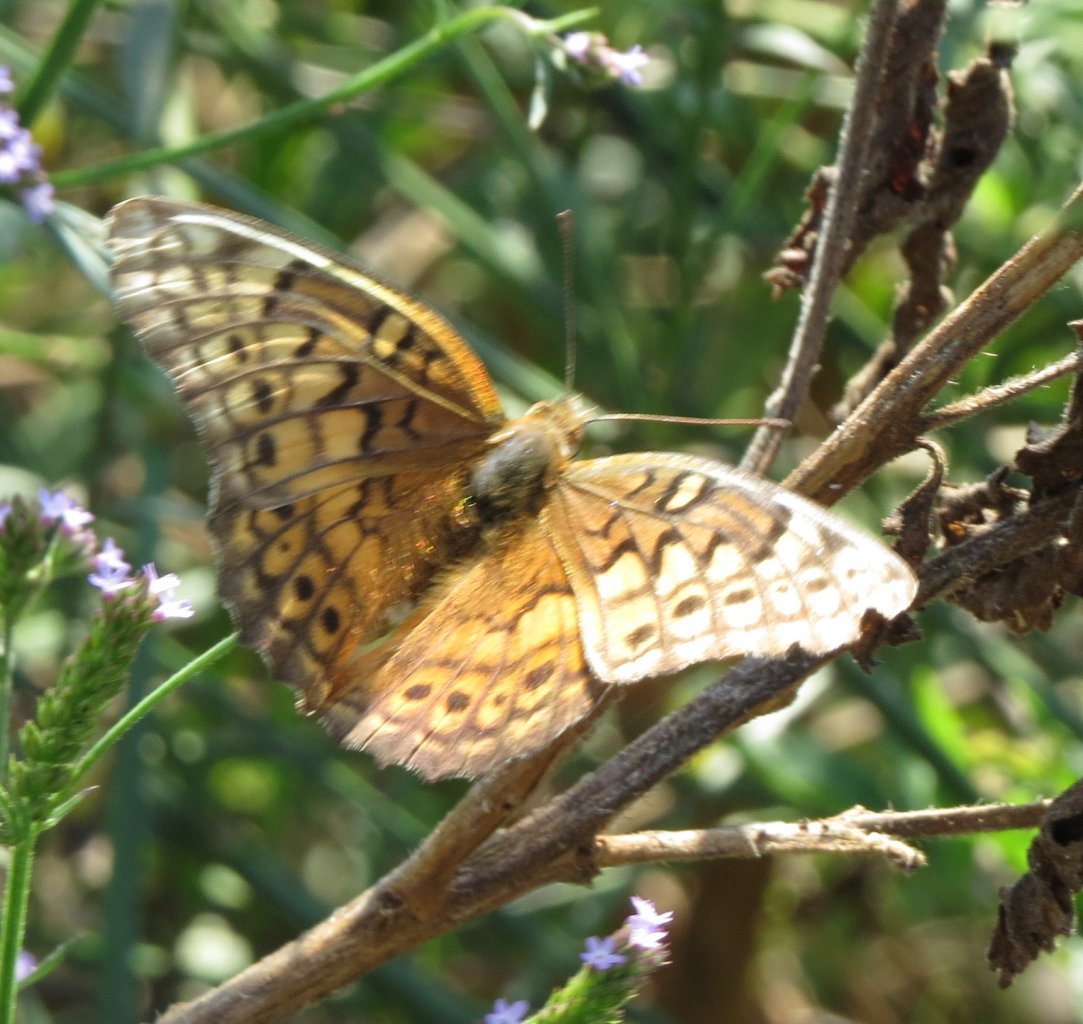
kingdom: Animalia
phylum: Arthropoda
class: Insecta
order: Lepidoptera
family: Nymphalidae
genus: Euptoieta
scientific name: Euptoieta claudia
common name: Variegated Fritillary
